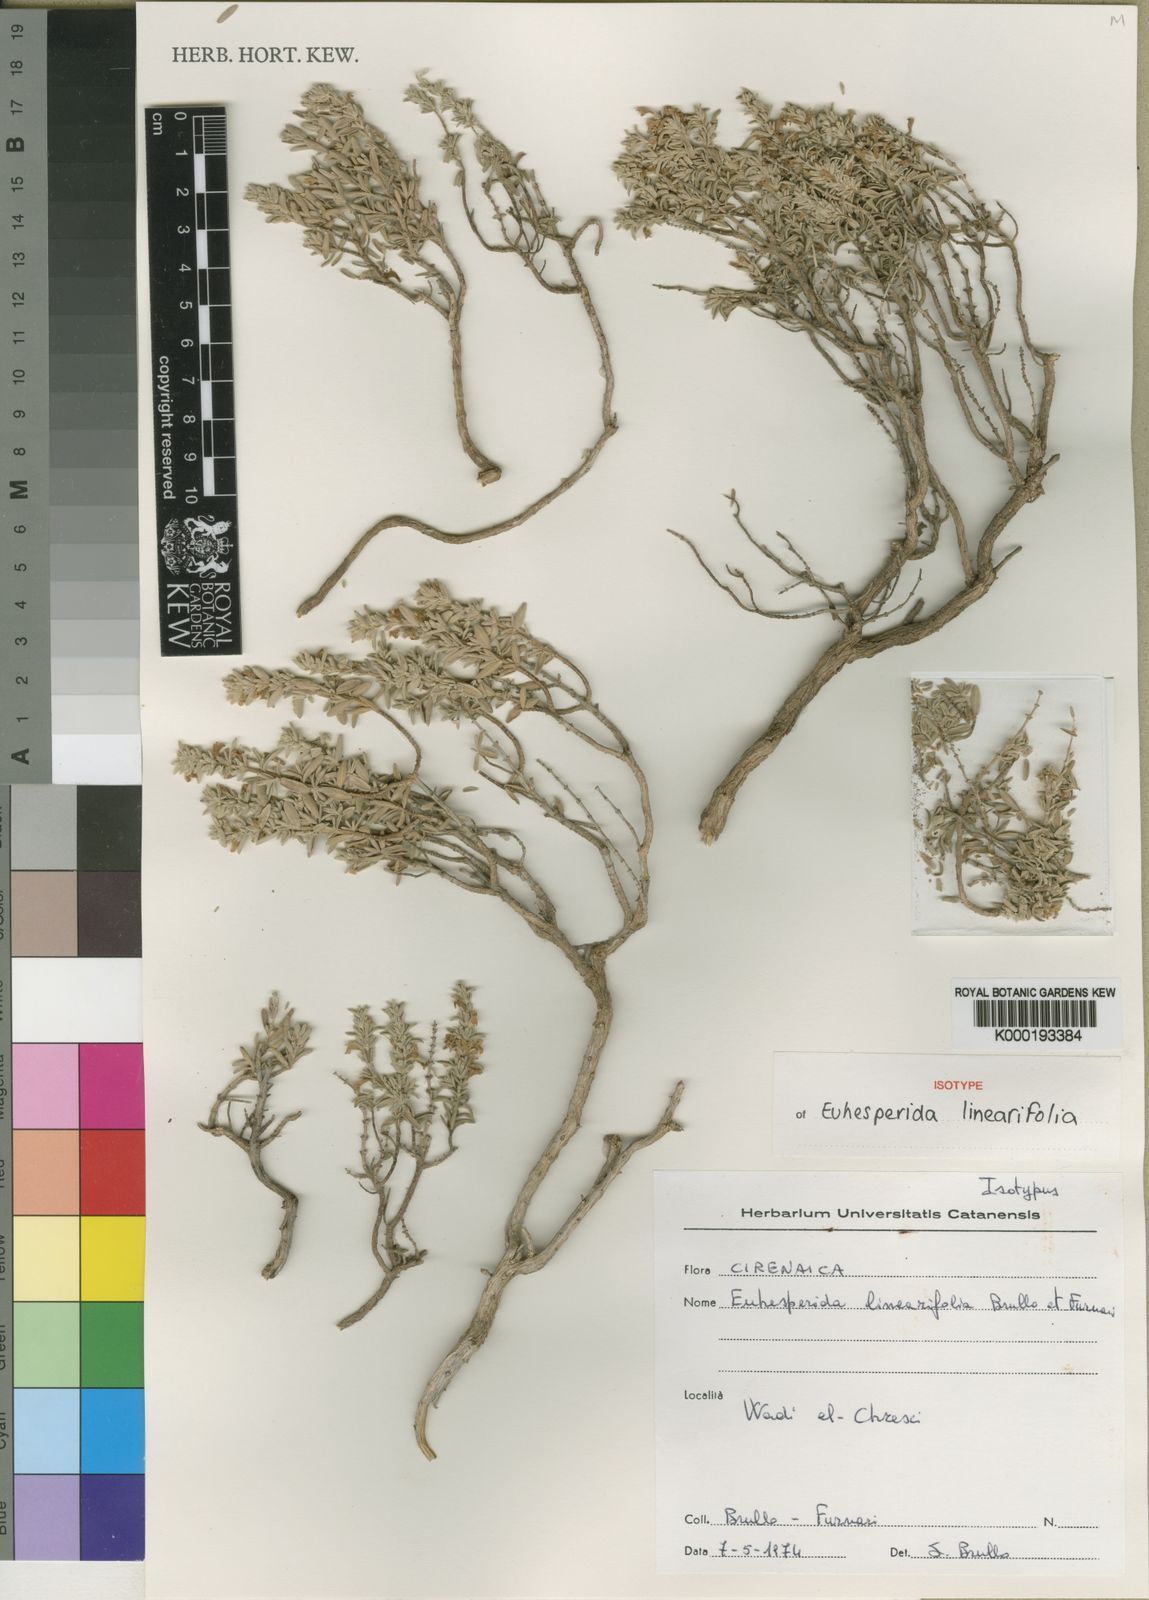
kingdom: Plantae
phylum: Tracheophyta
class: Magnoliopsida
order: Lamiales
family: Lamiaceae
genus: Thymbra
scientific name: Thymbra linearifolia
